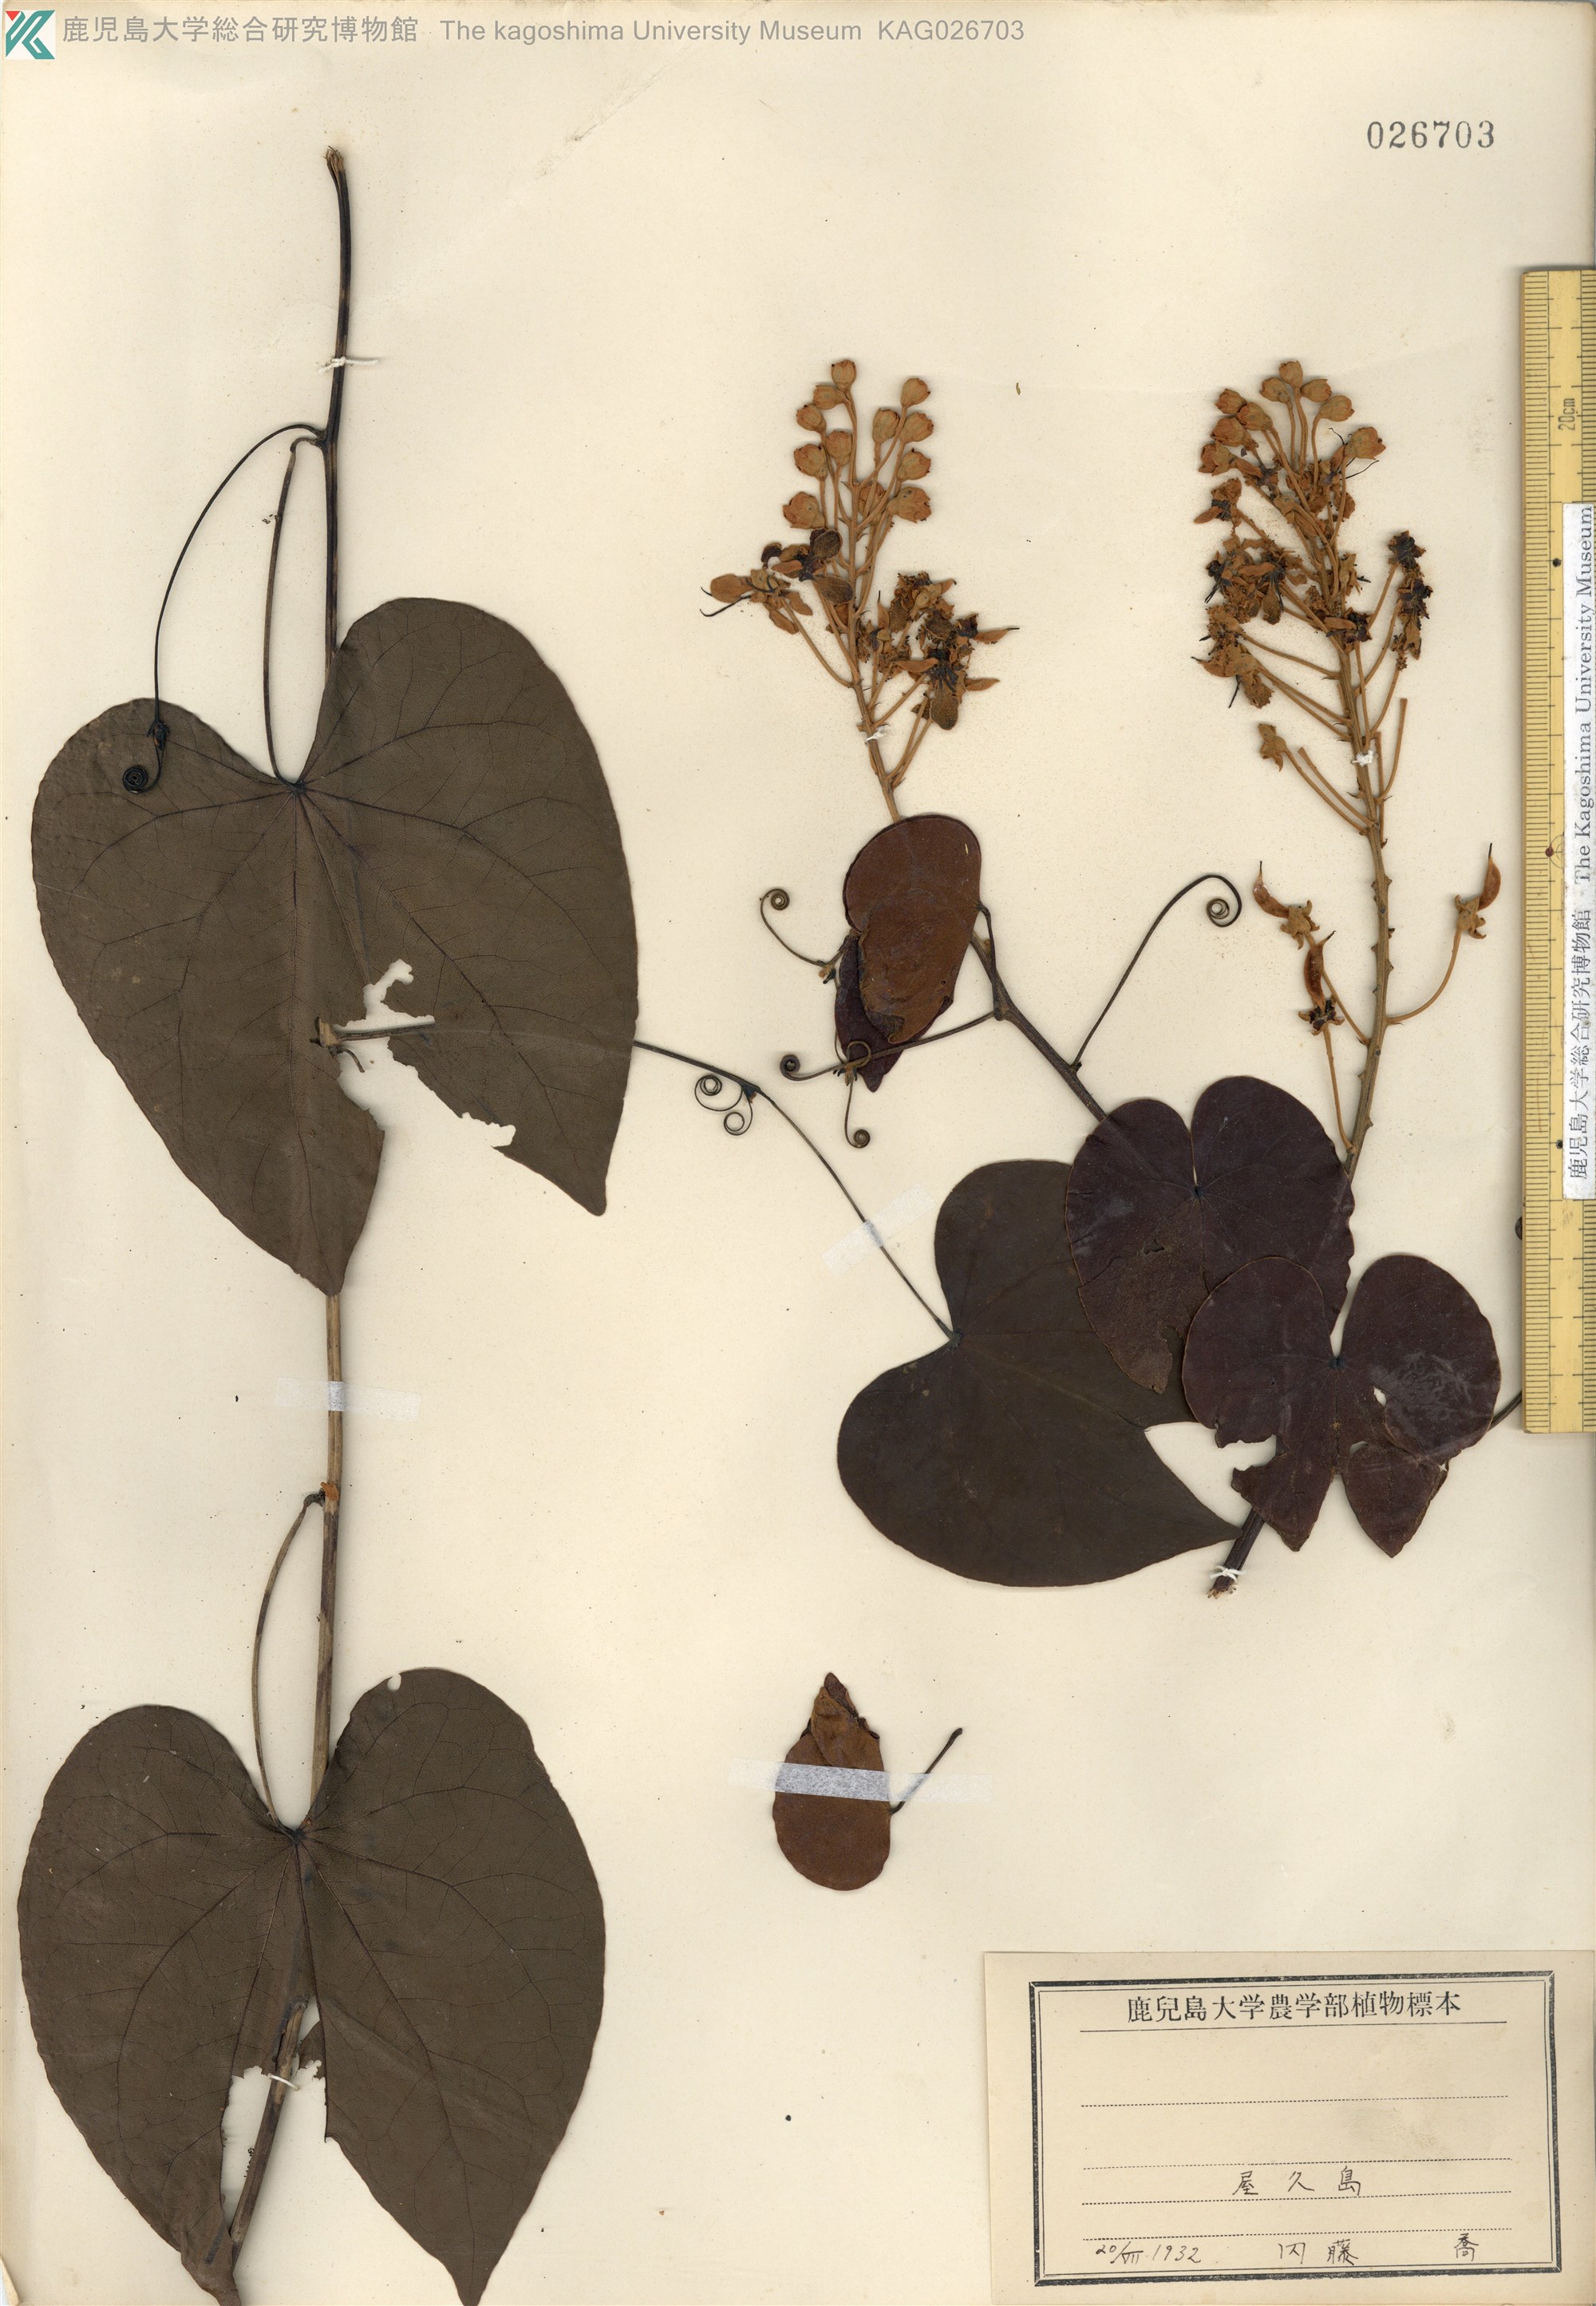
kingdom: Plantae
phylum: Tracheophyta
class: Magnoliopsida
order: Fabales
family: Fabaceae
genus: Phanera
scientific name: Phanera japonica
